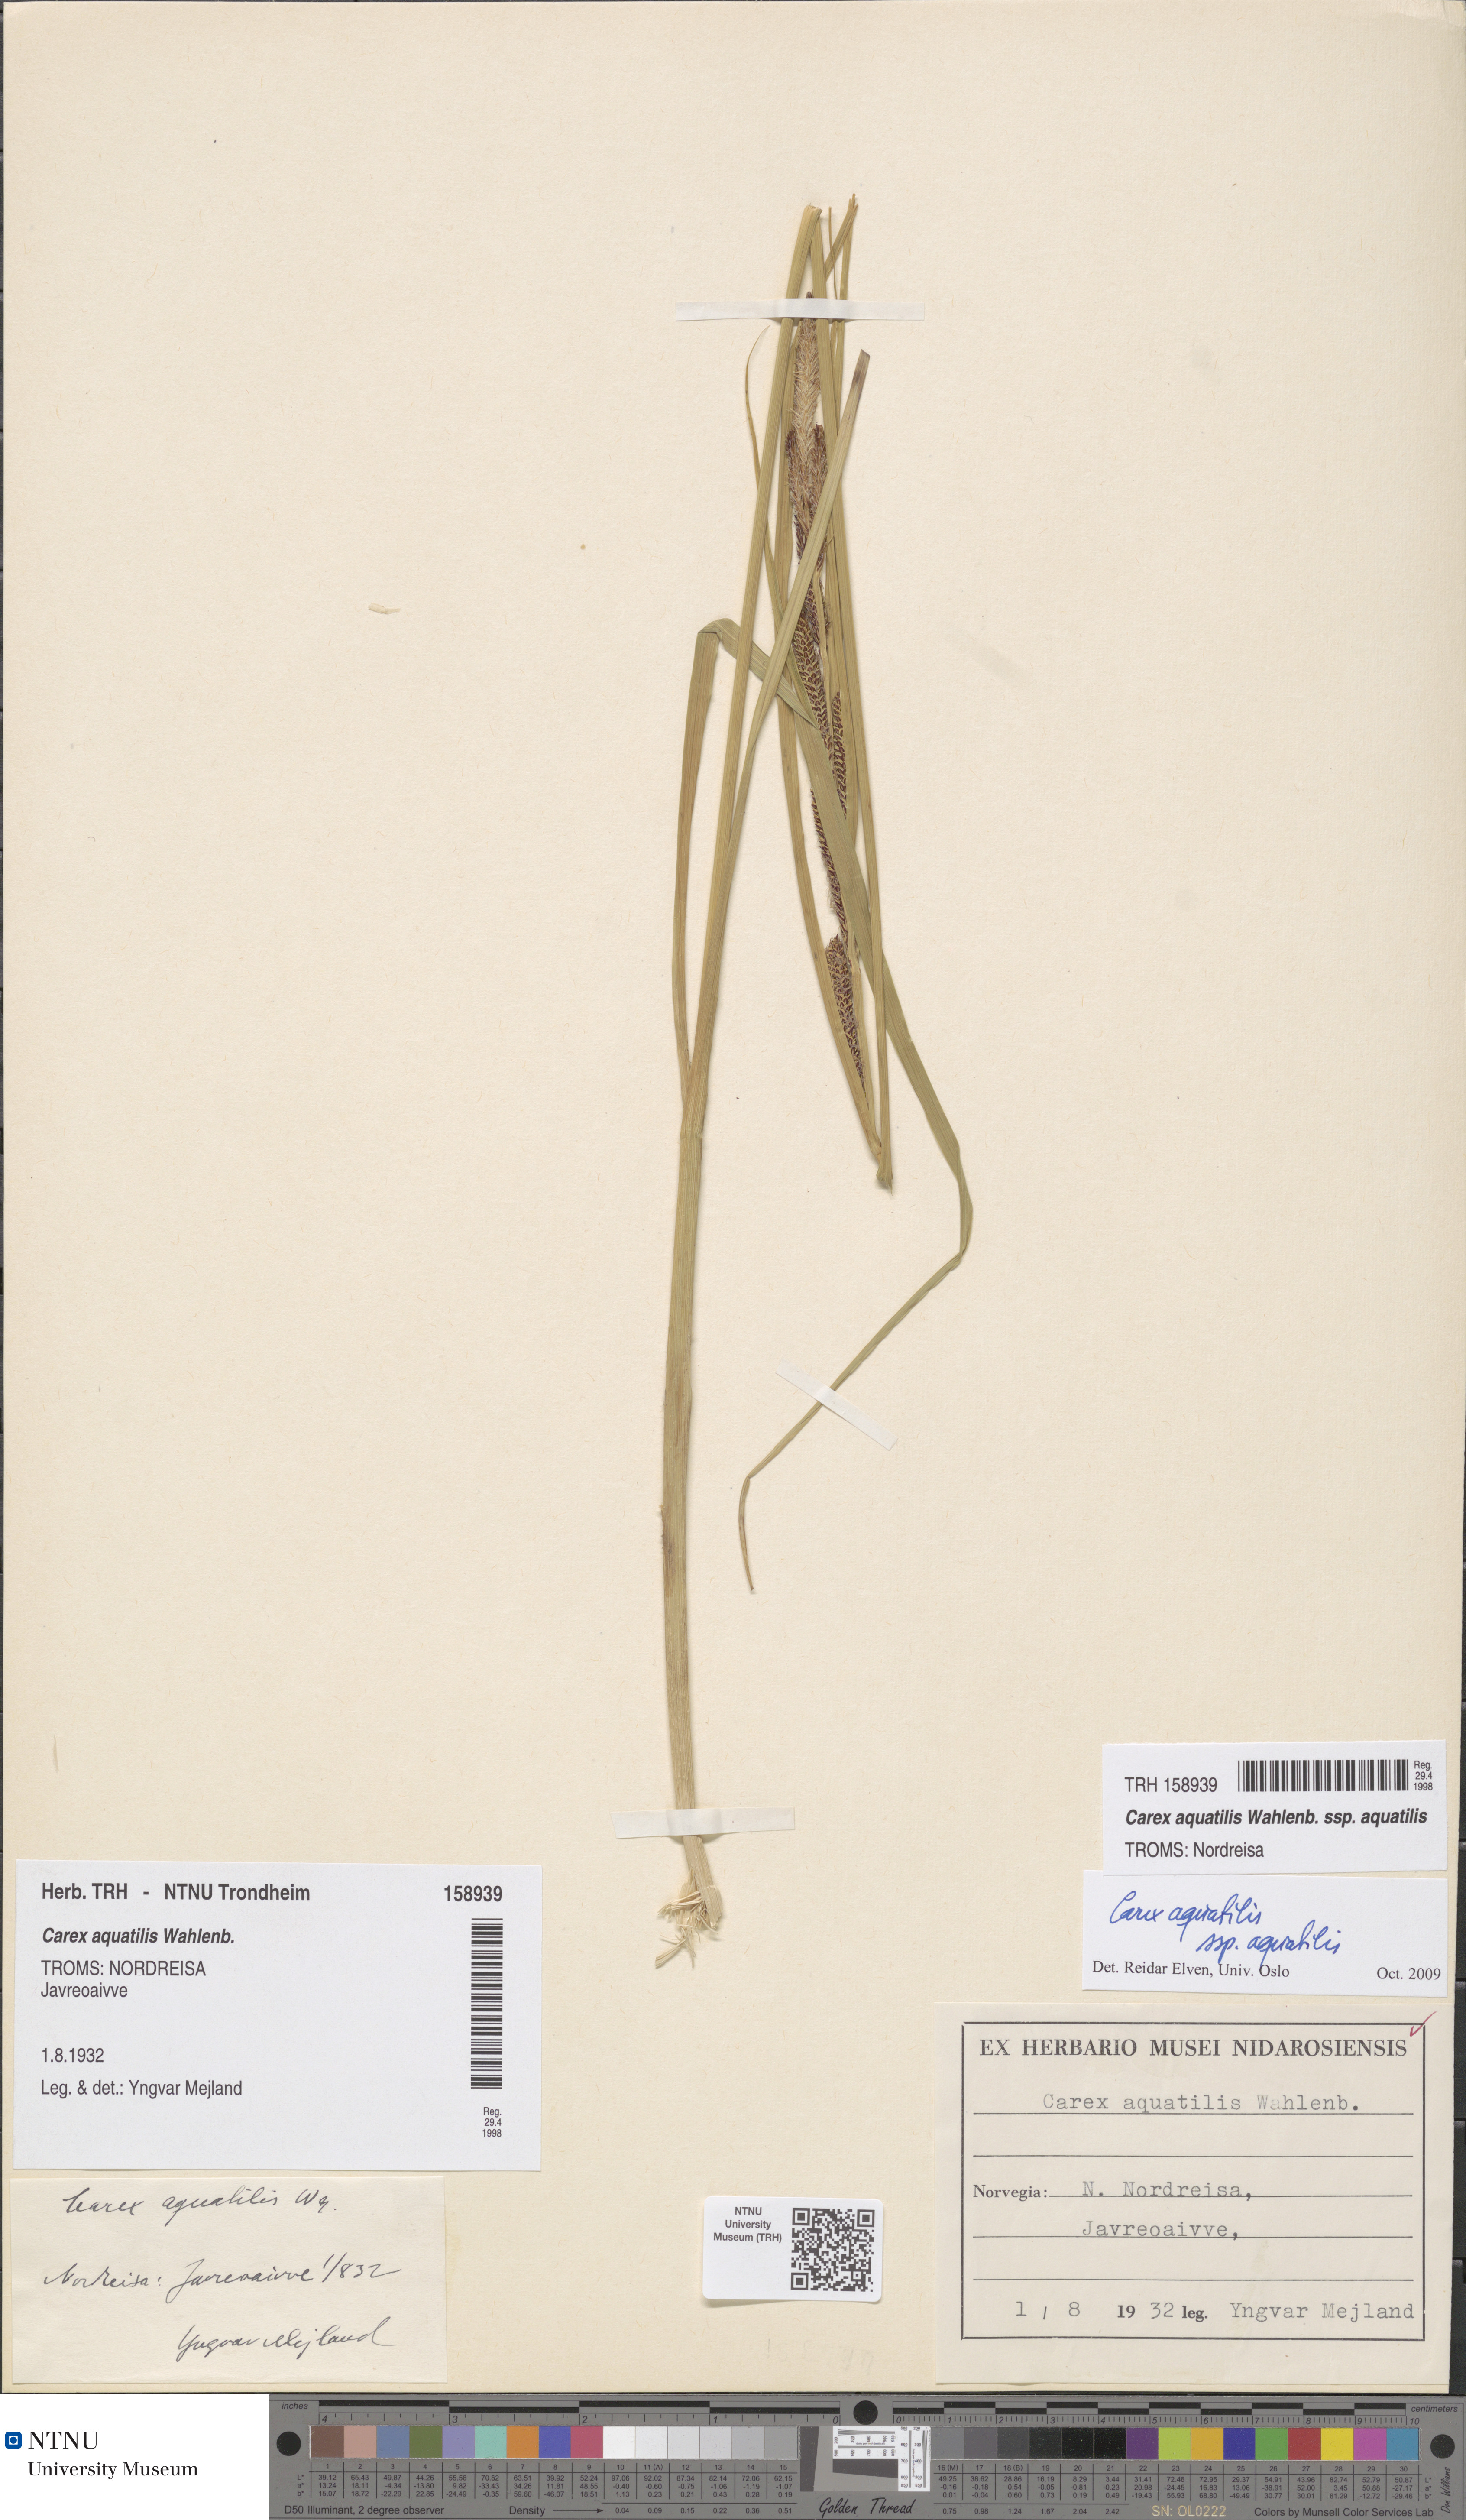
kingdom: Plantae
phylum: Tracheophyta
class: Liliopsida
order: Poales
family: Cyperaceae
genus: Carex
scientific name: Carex aquatilis
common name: Water sedge
